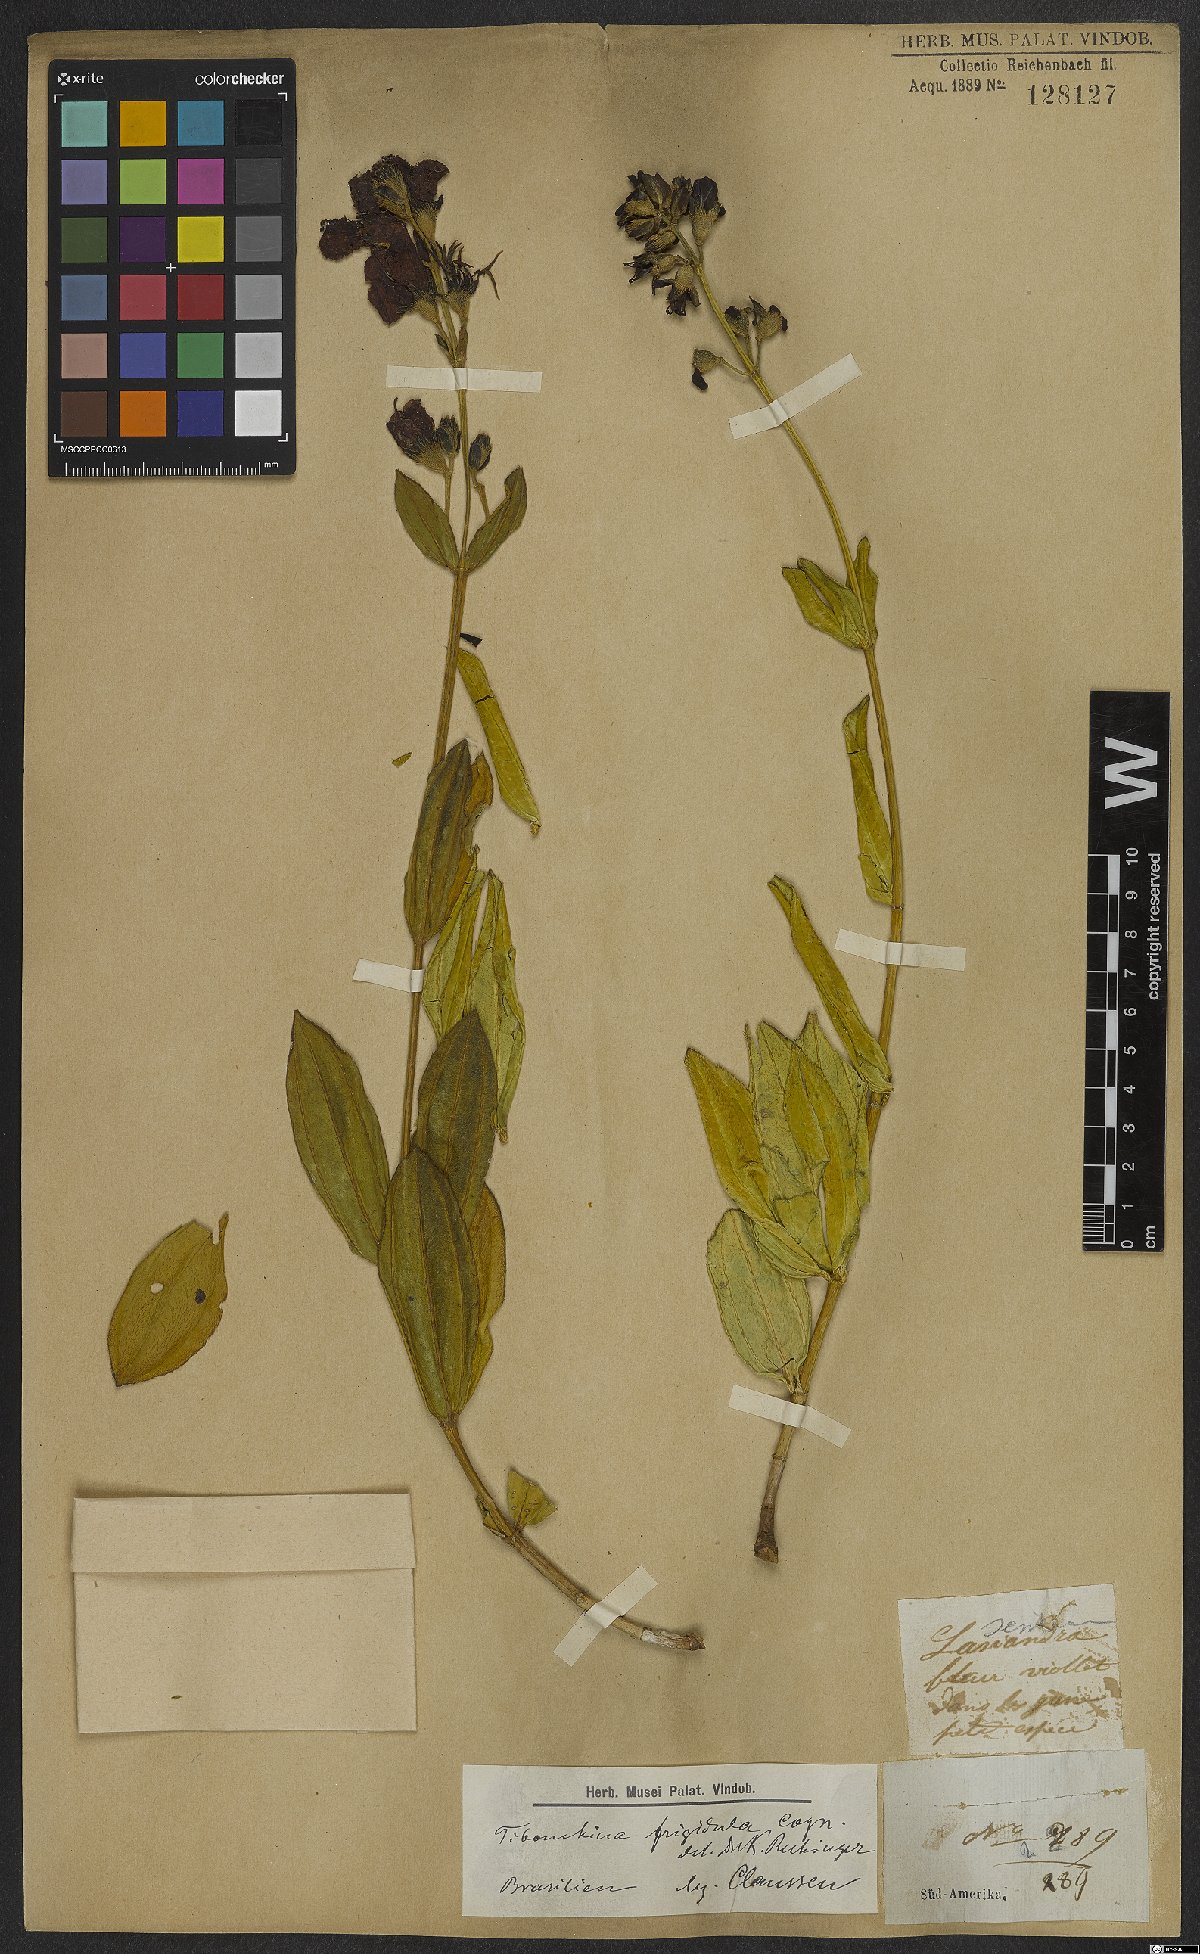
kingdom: Plantae
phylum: Tracheophyta
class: Magnoliopsida
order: Myrtales
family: Melastomataceae
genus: Pleroma
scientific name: Pleroma martiusianum
